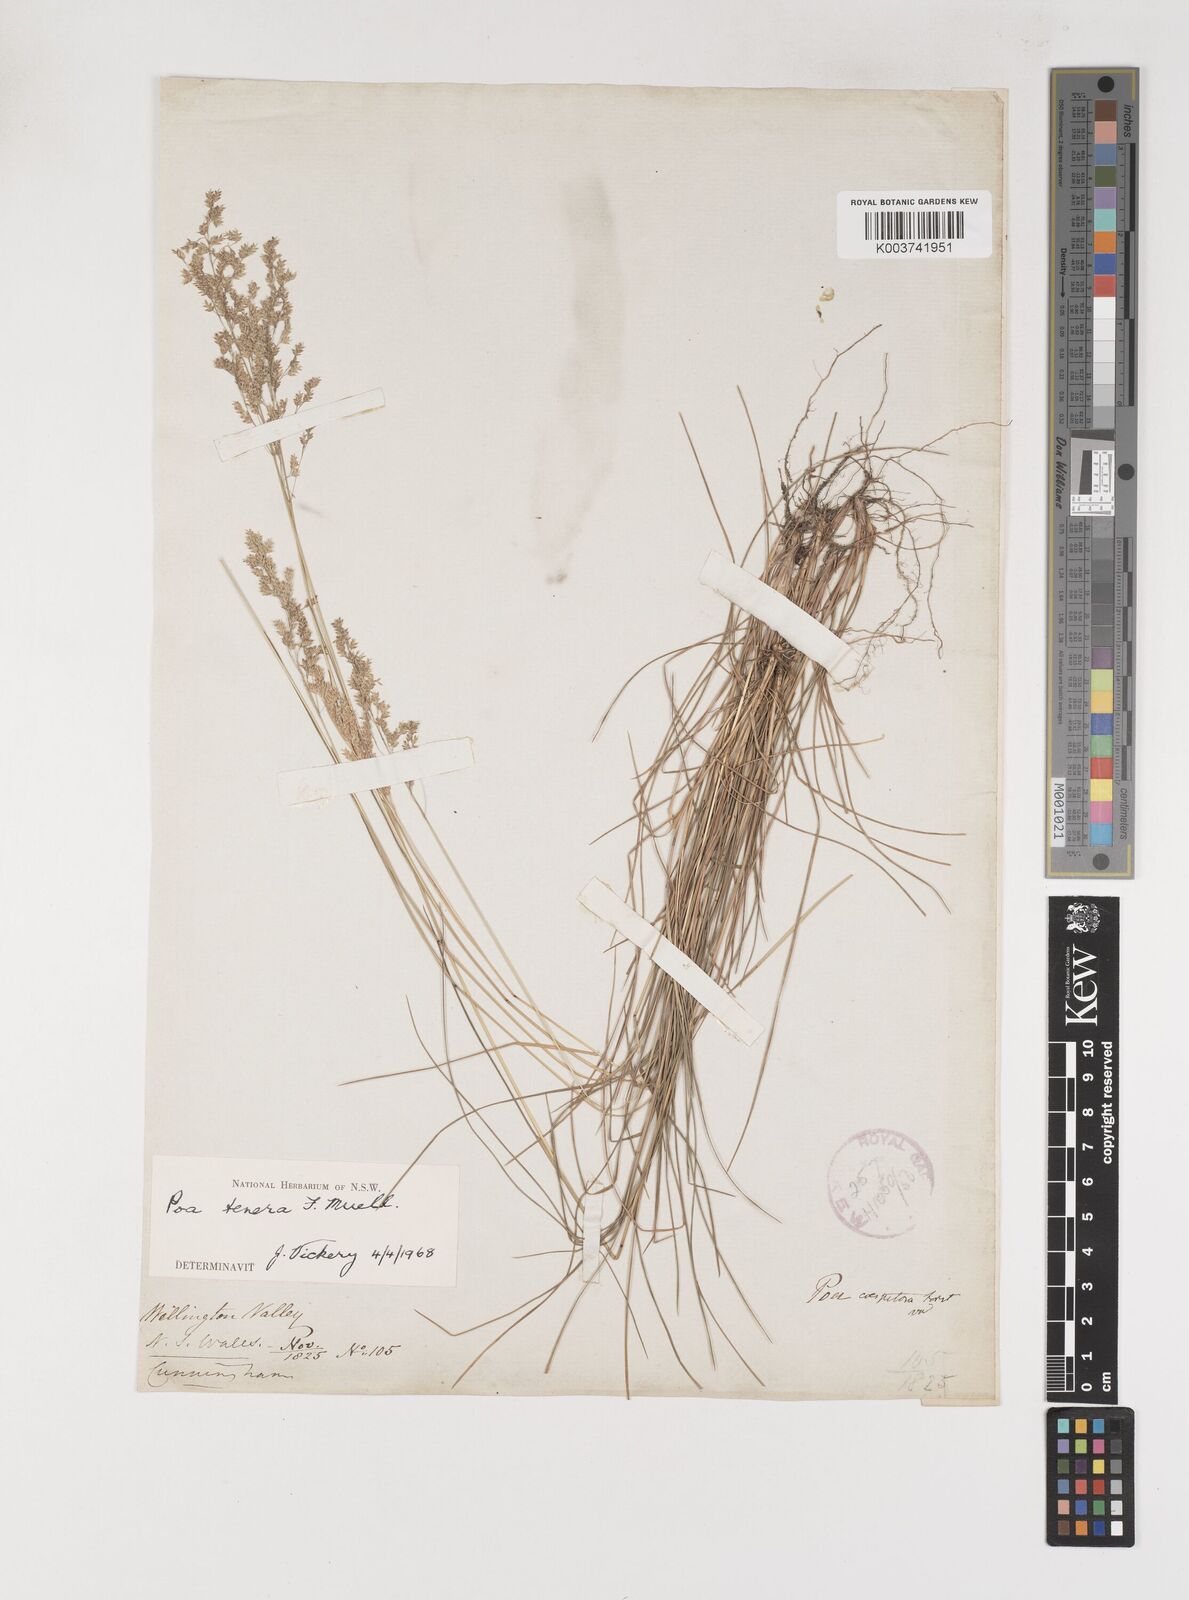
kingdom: Plantae
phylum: Tracheophyta
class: Liliopsida
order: Poales
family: Poaceae
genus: Poa
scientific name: Poa tenera
